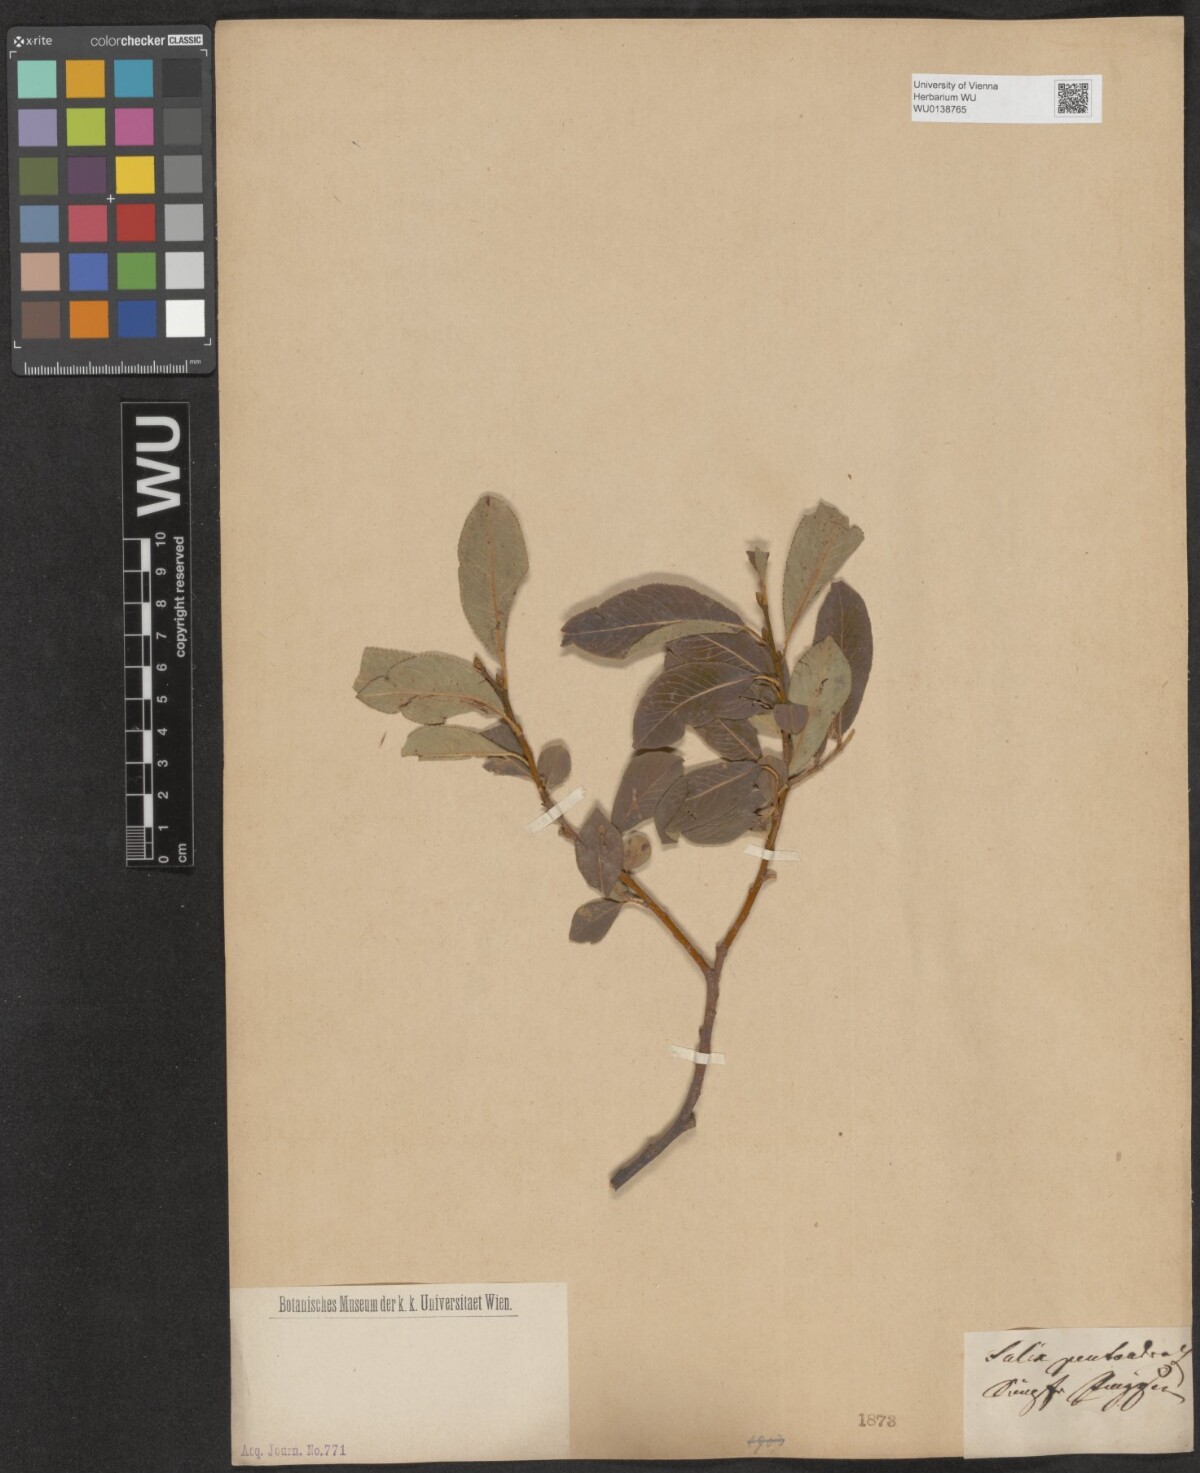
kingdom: Plantae
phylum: Tracheophyta
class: Magnoliopsida
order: Malpighiales
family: Salicaceae
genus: Salix
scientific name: Salix pentandra
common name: Bay willow
